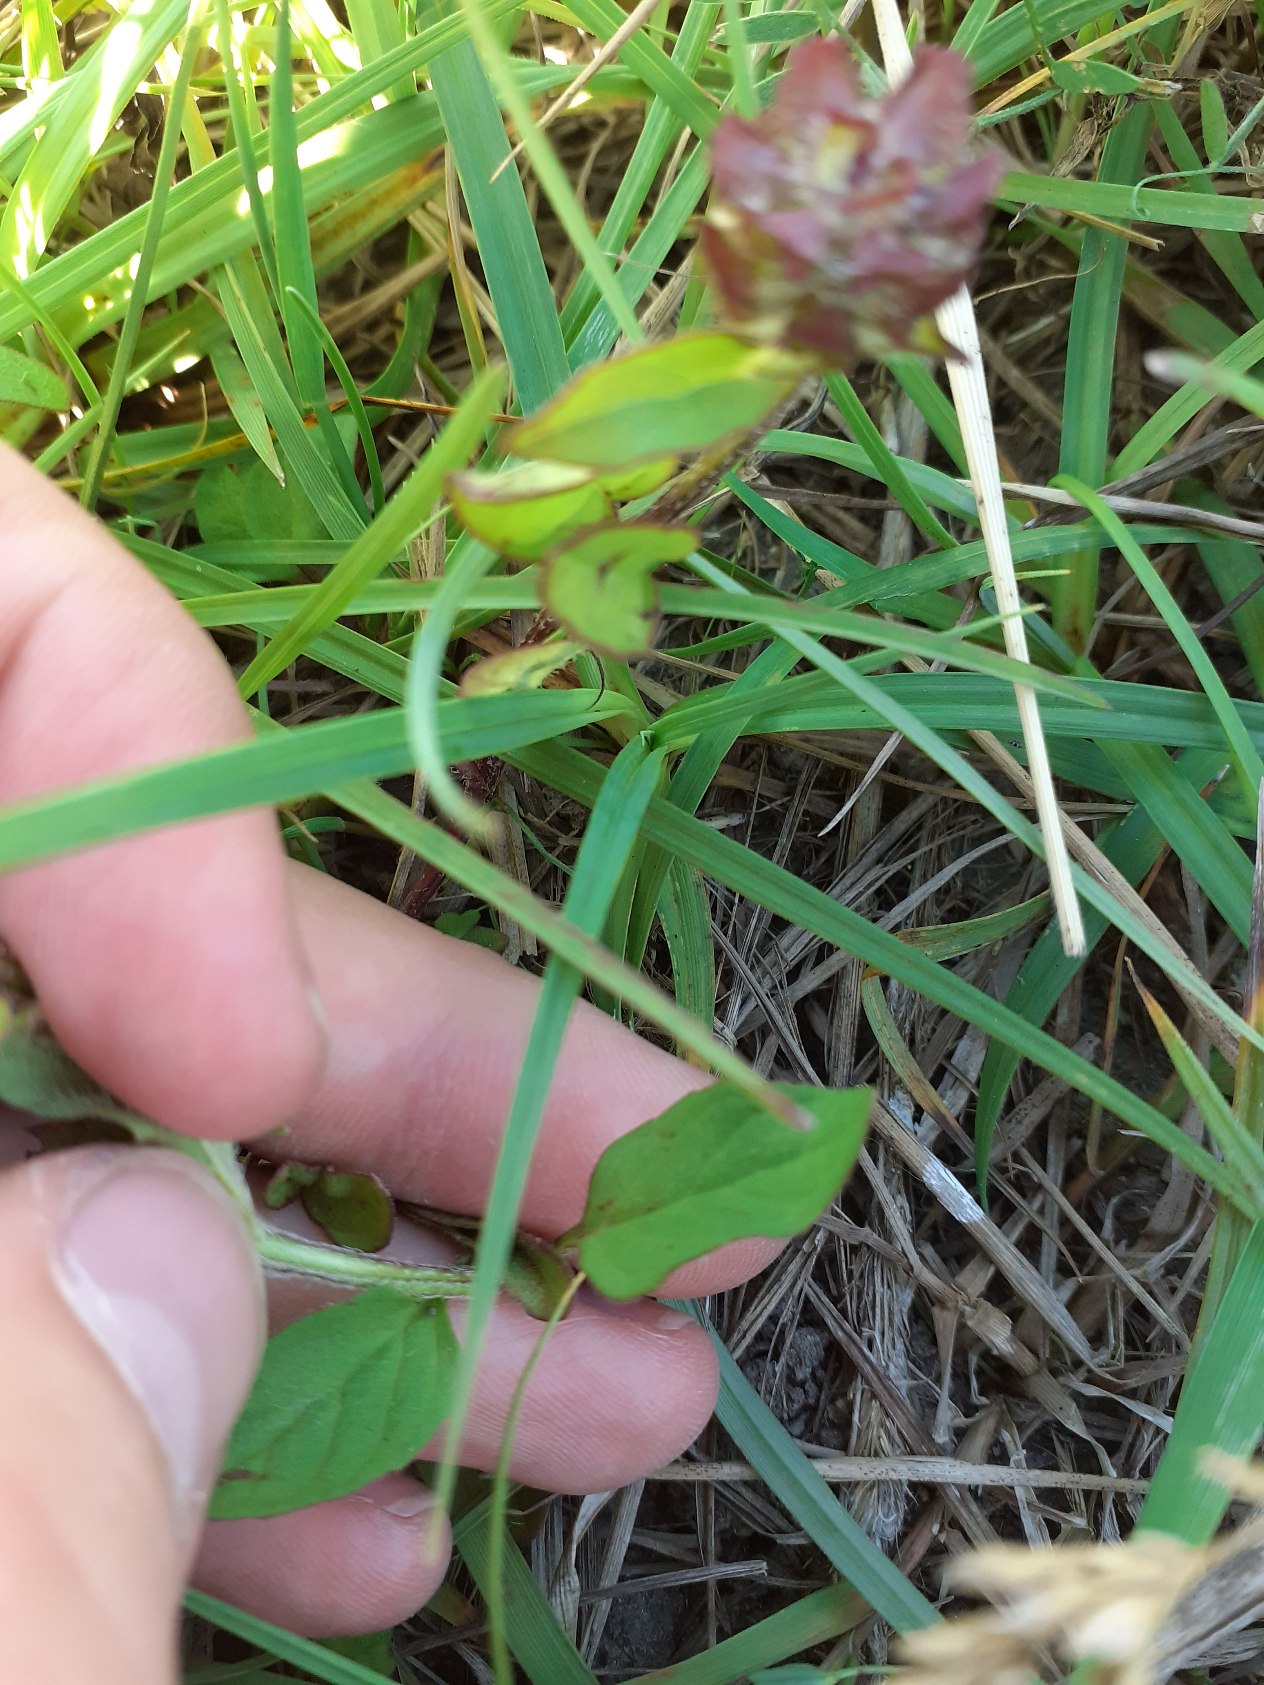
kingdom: Plantae
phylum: Tracheophyta
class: Magnoliopsida
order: Lamiales
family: Lamiaceae
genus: Prunella
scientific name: Prunella vulgaris
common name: Almindelig brunelle
